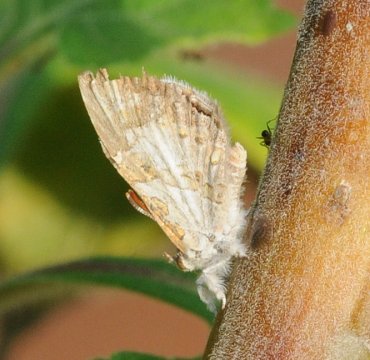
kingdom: Animalia
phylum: Arthropoda
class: Insecta
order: Lepidoptera
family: Lycaenidae
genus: Lachnocnema
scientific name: Lachnocnema bibulus
